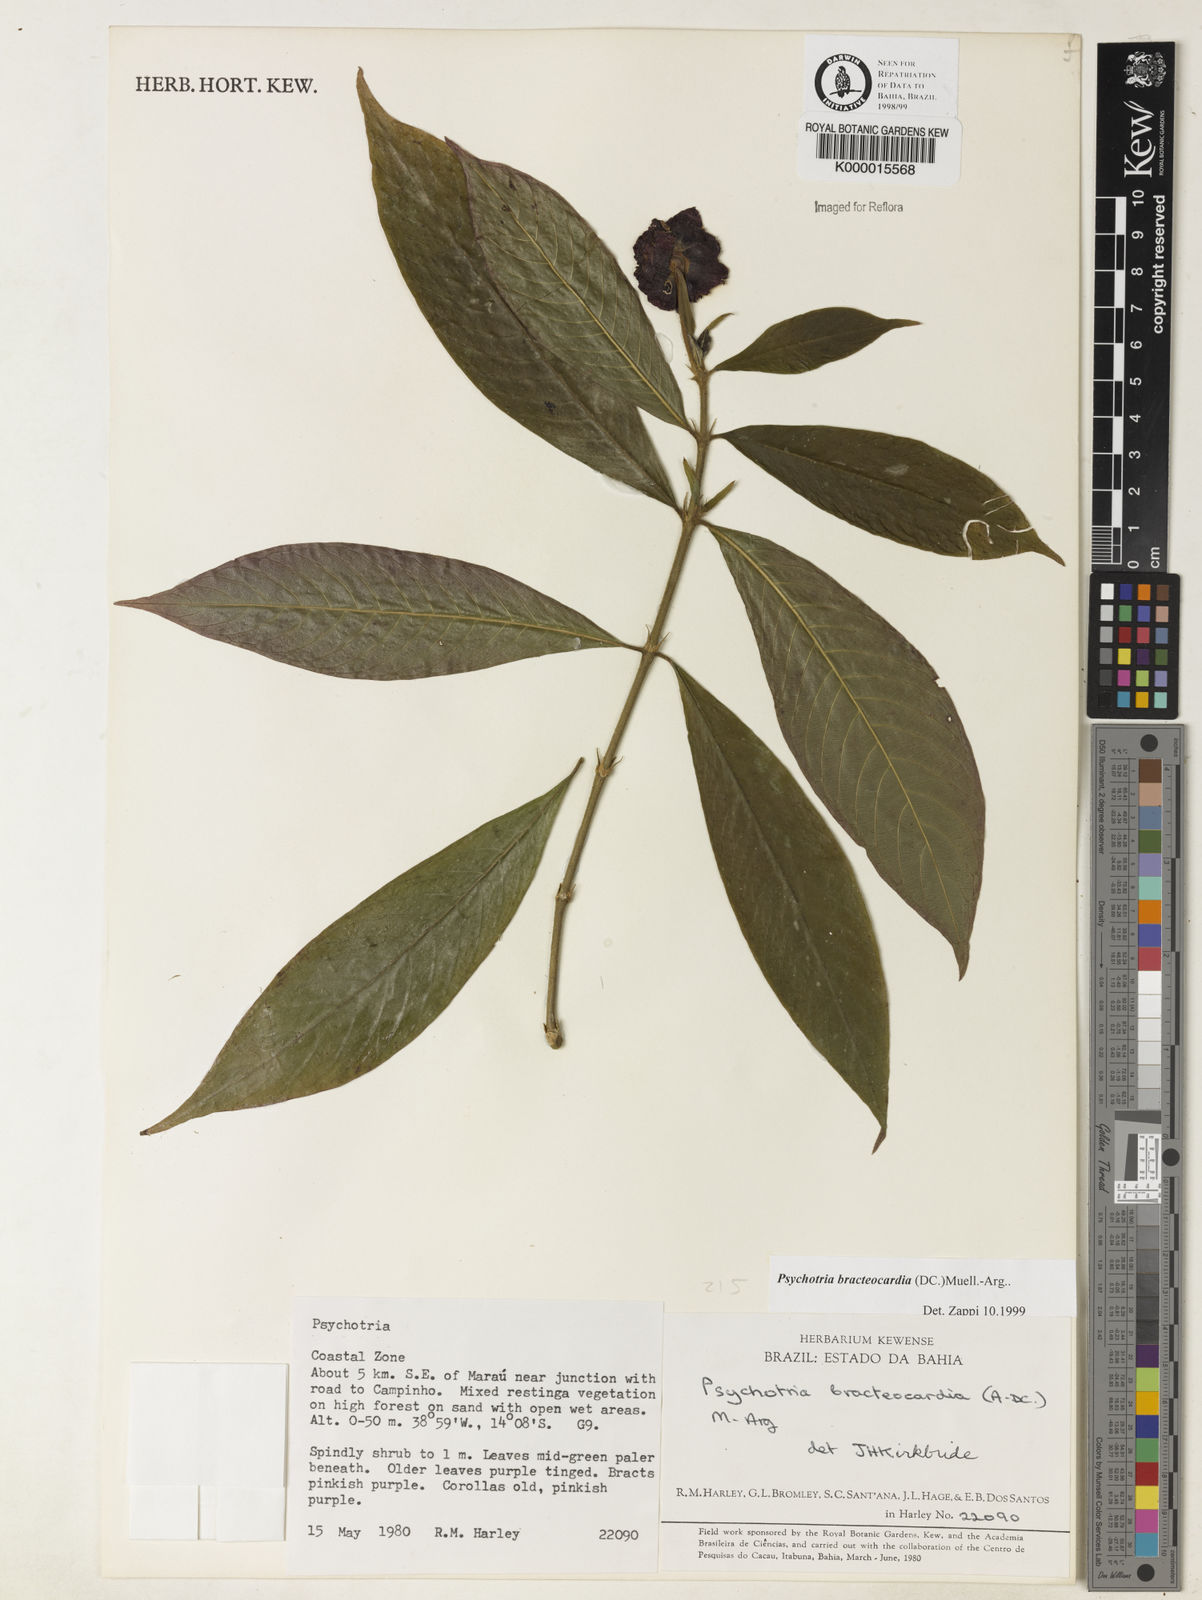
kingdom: Plantae
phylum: Tracheophyta
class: Magnoliopsida
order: Gentianales
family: Rubiaceae
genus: Psychotria
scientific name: Psychotria
